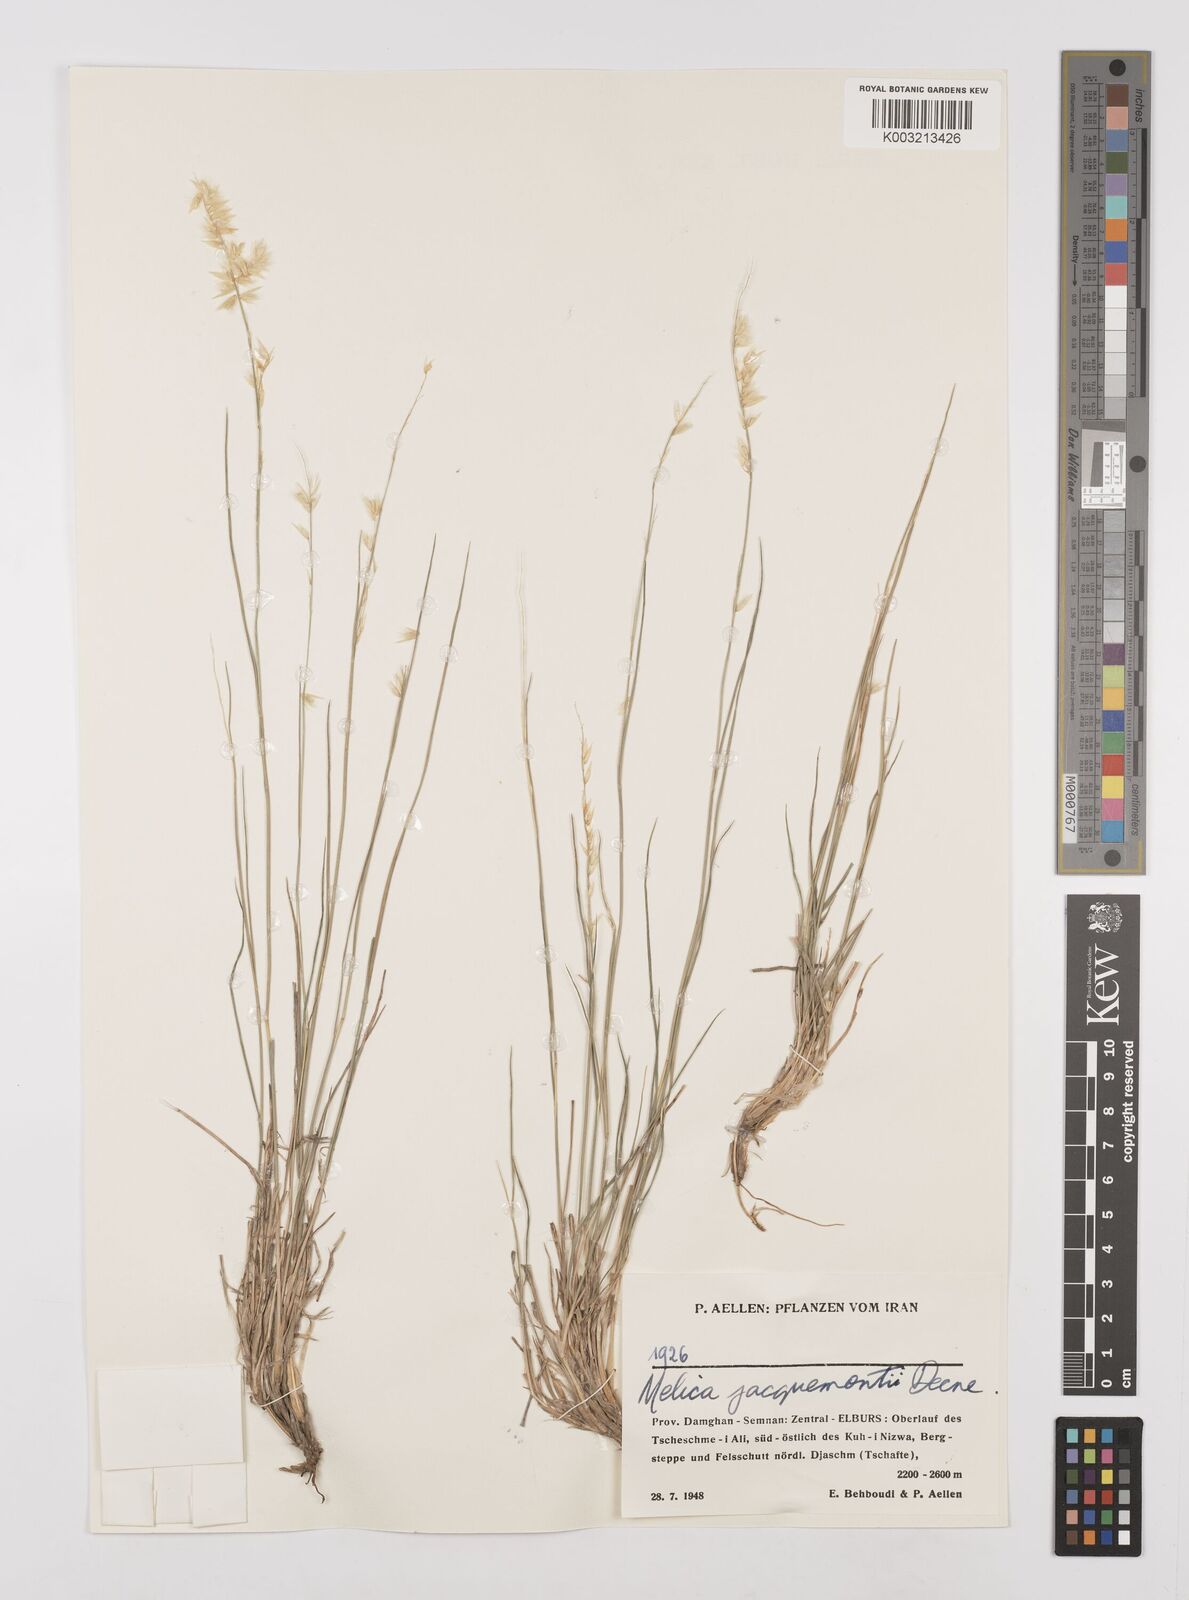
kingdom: Plantae
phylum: Tracheophyta
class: Liliopsida
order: Poales
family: Poaceae
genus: Melica
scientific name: Melica persica
